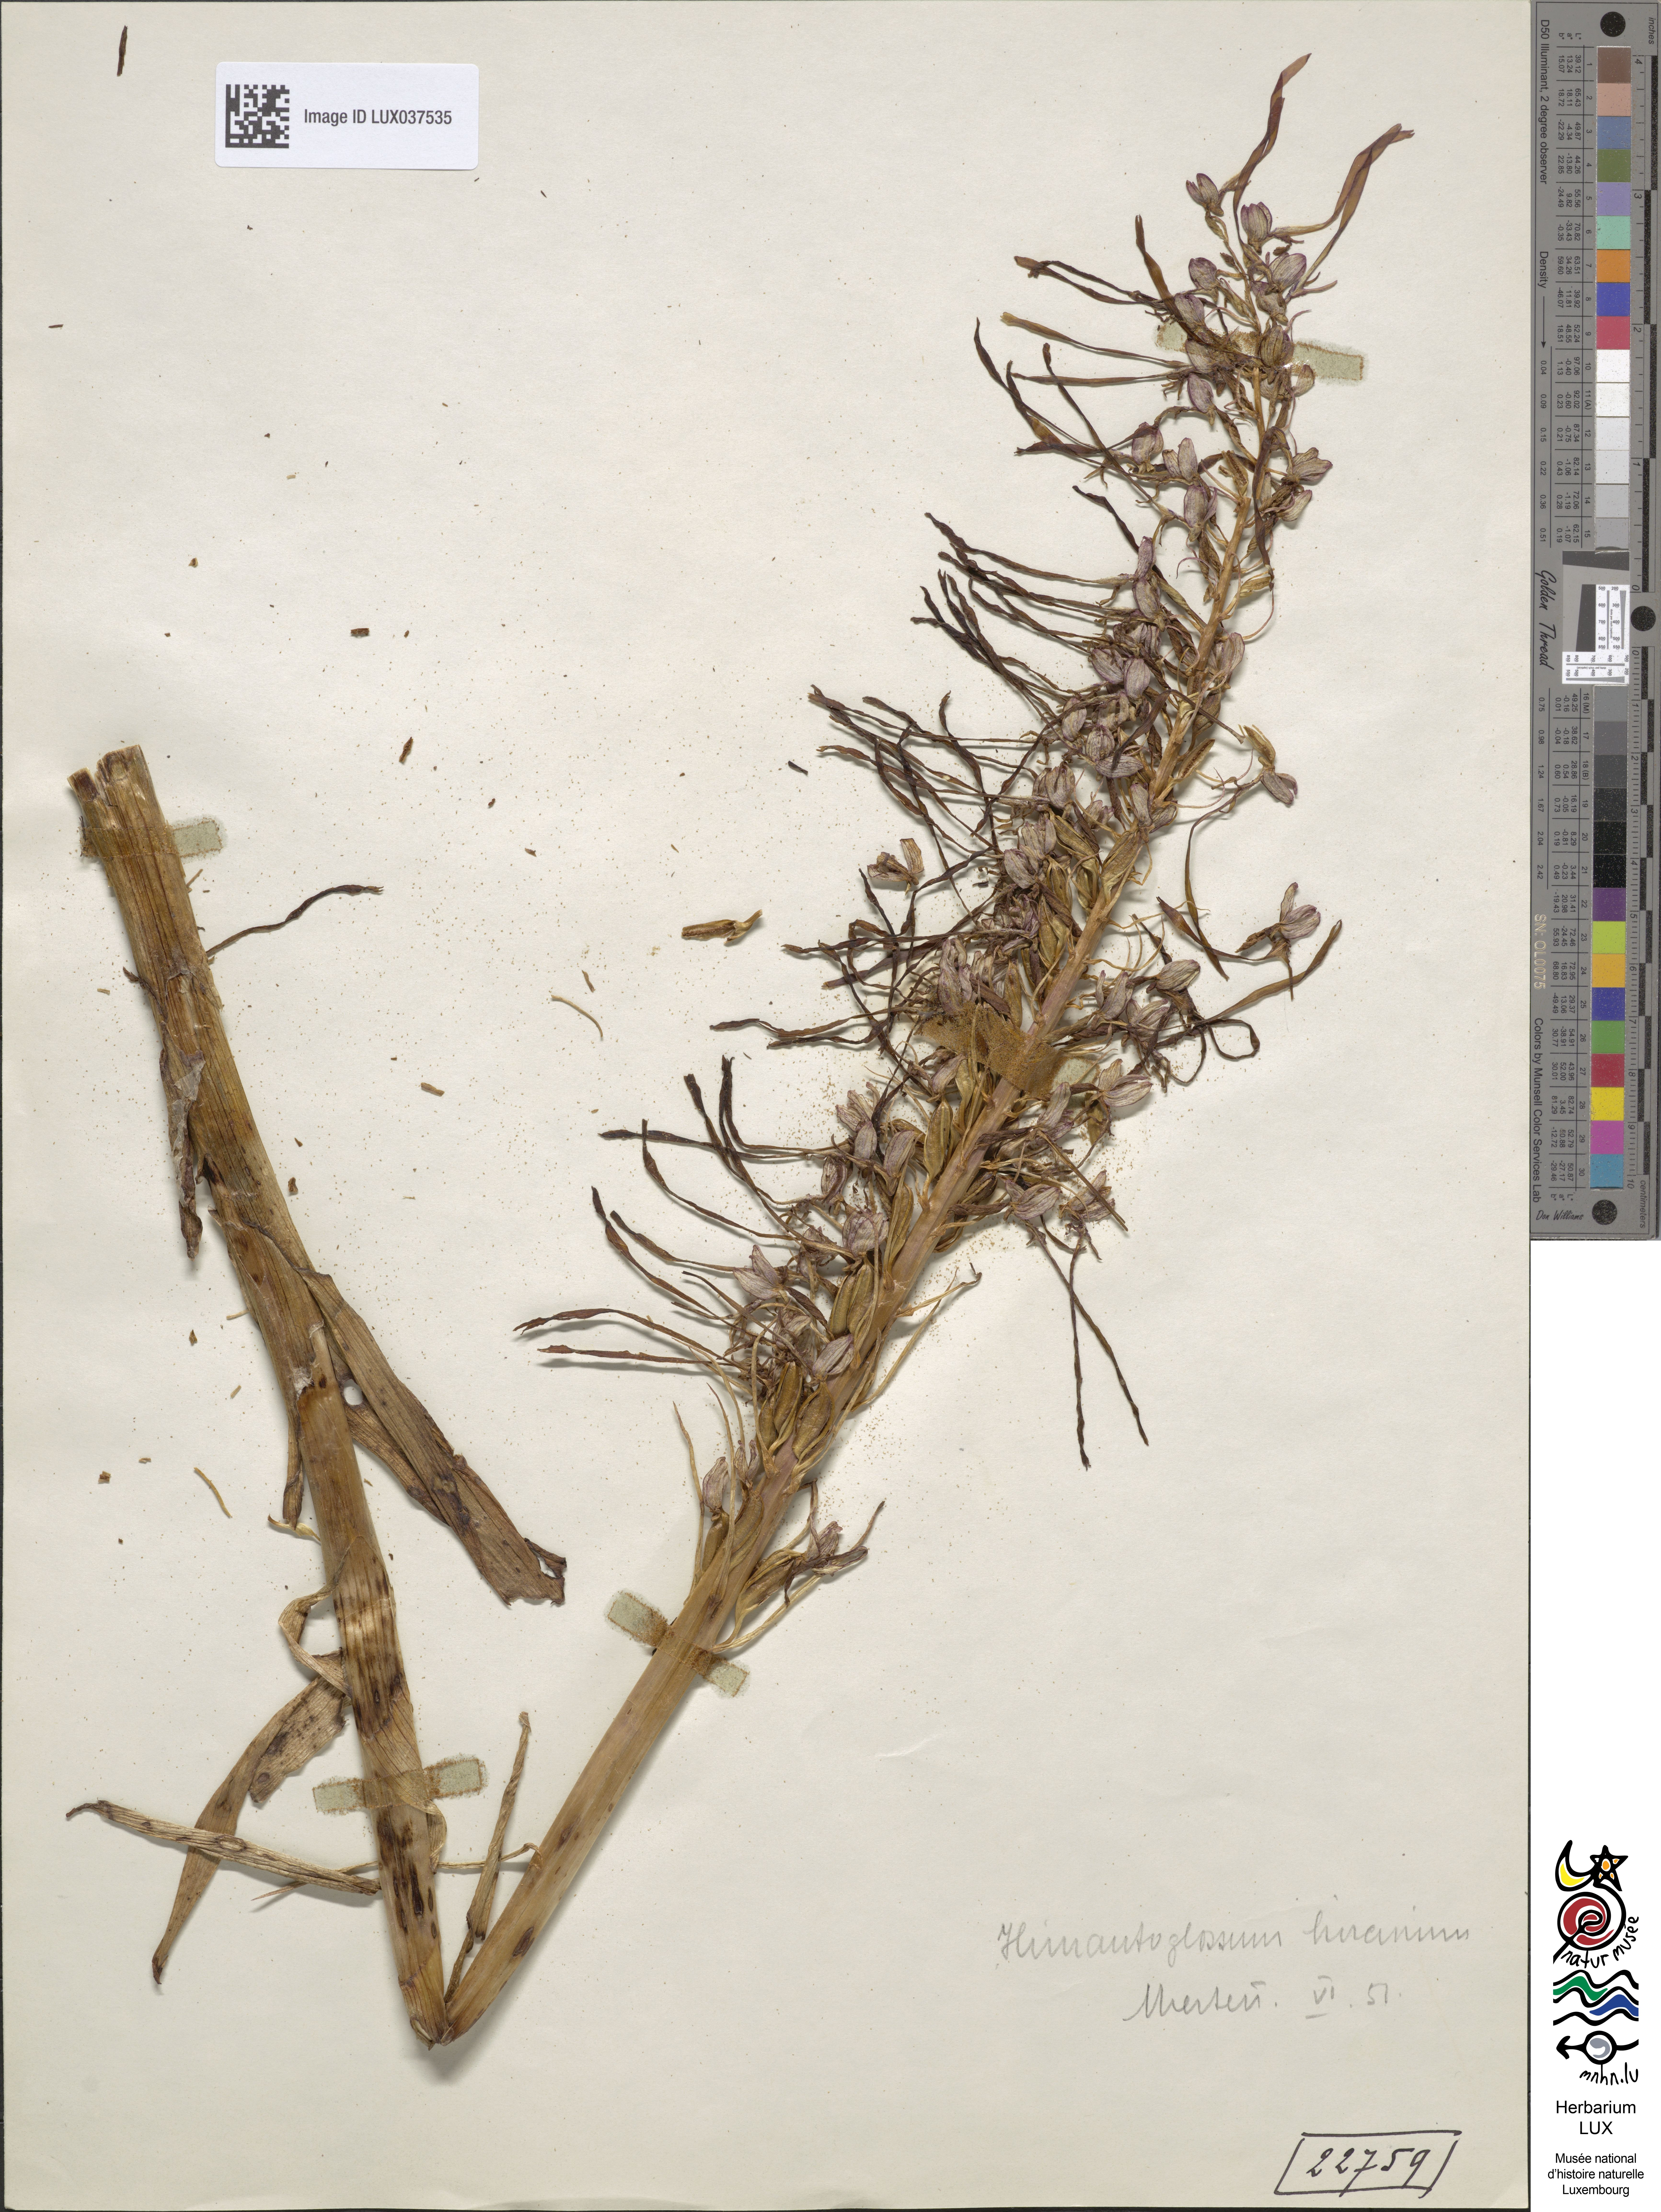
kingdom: Plantae
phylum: Tracheophyta
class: Liliopsida
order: Asparagales
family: Orchidaceae
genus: Himantoglossum
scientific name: Himantoglossum hircinum
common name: Lizard orchid
